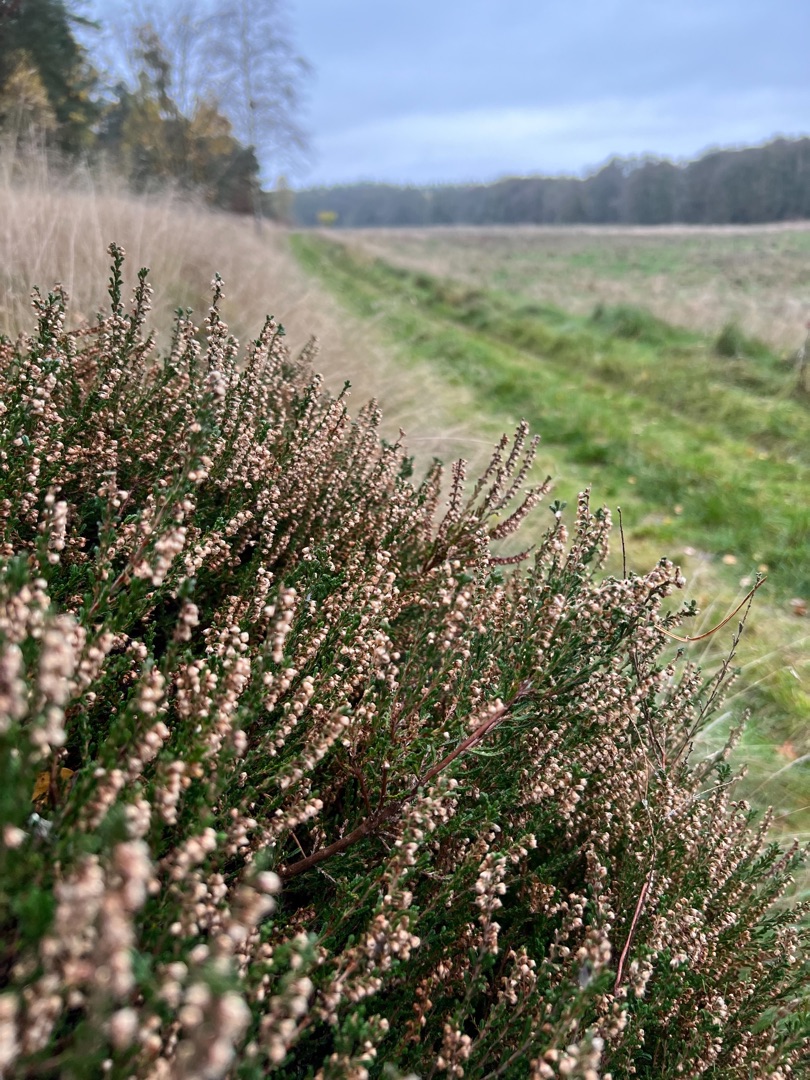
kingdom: Plantae
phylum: Tracheophyta
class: Magnoliopsida
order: Ericales
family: Ericaceae
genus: Calluna
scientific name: Calluna vulgaris
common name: Hedelyng
